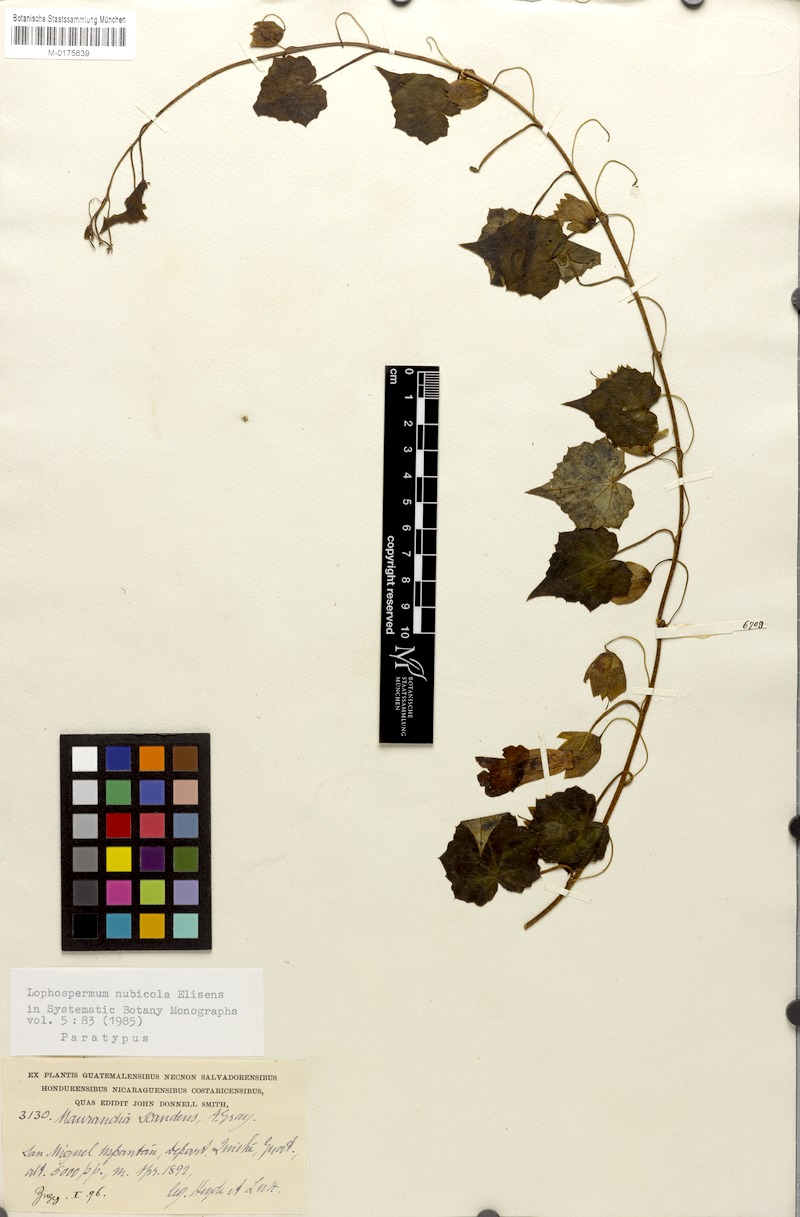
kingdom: Plantae
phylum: Tracheophyta
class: Magnoliopsida
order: Lamiales
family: Plantaginaceae
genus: Rhodochiton
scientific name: Rhodochiton nubicola
